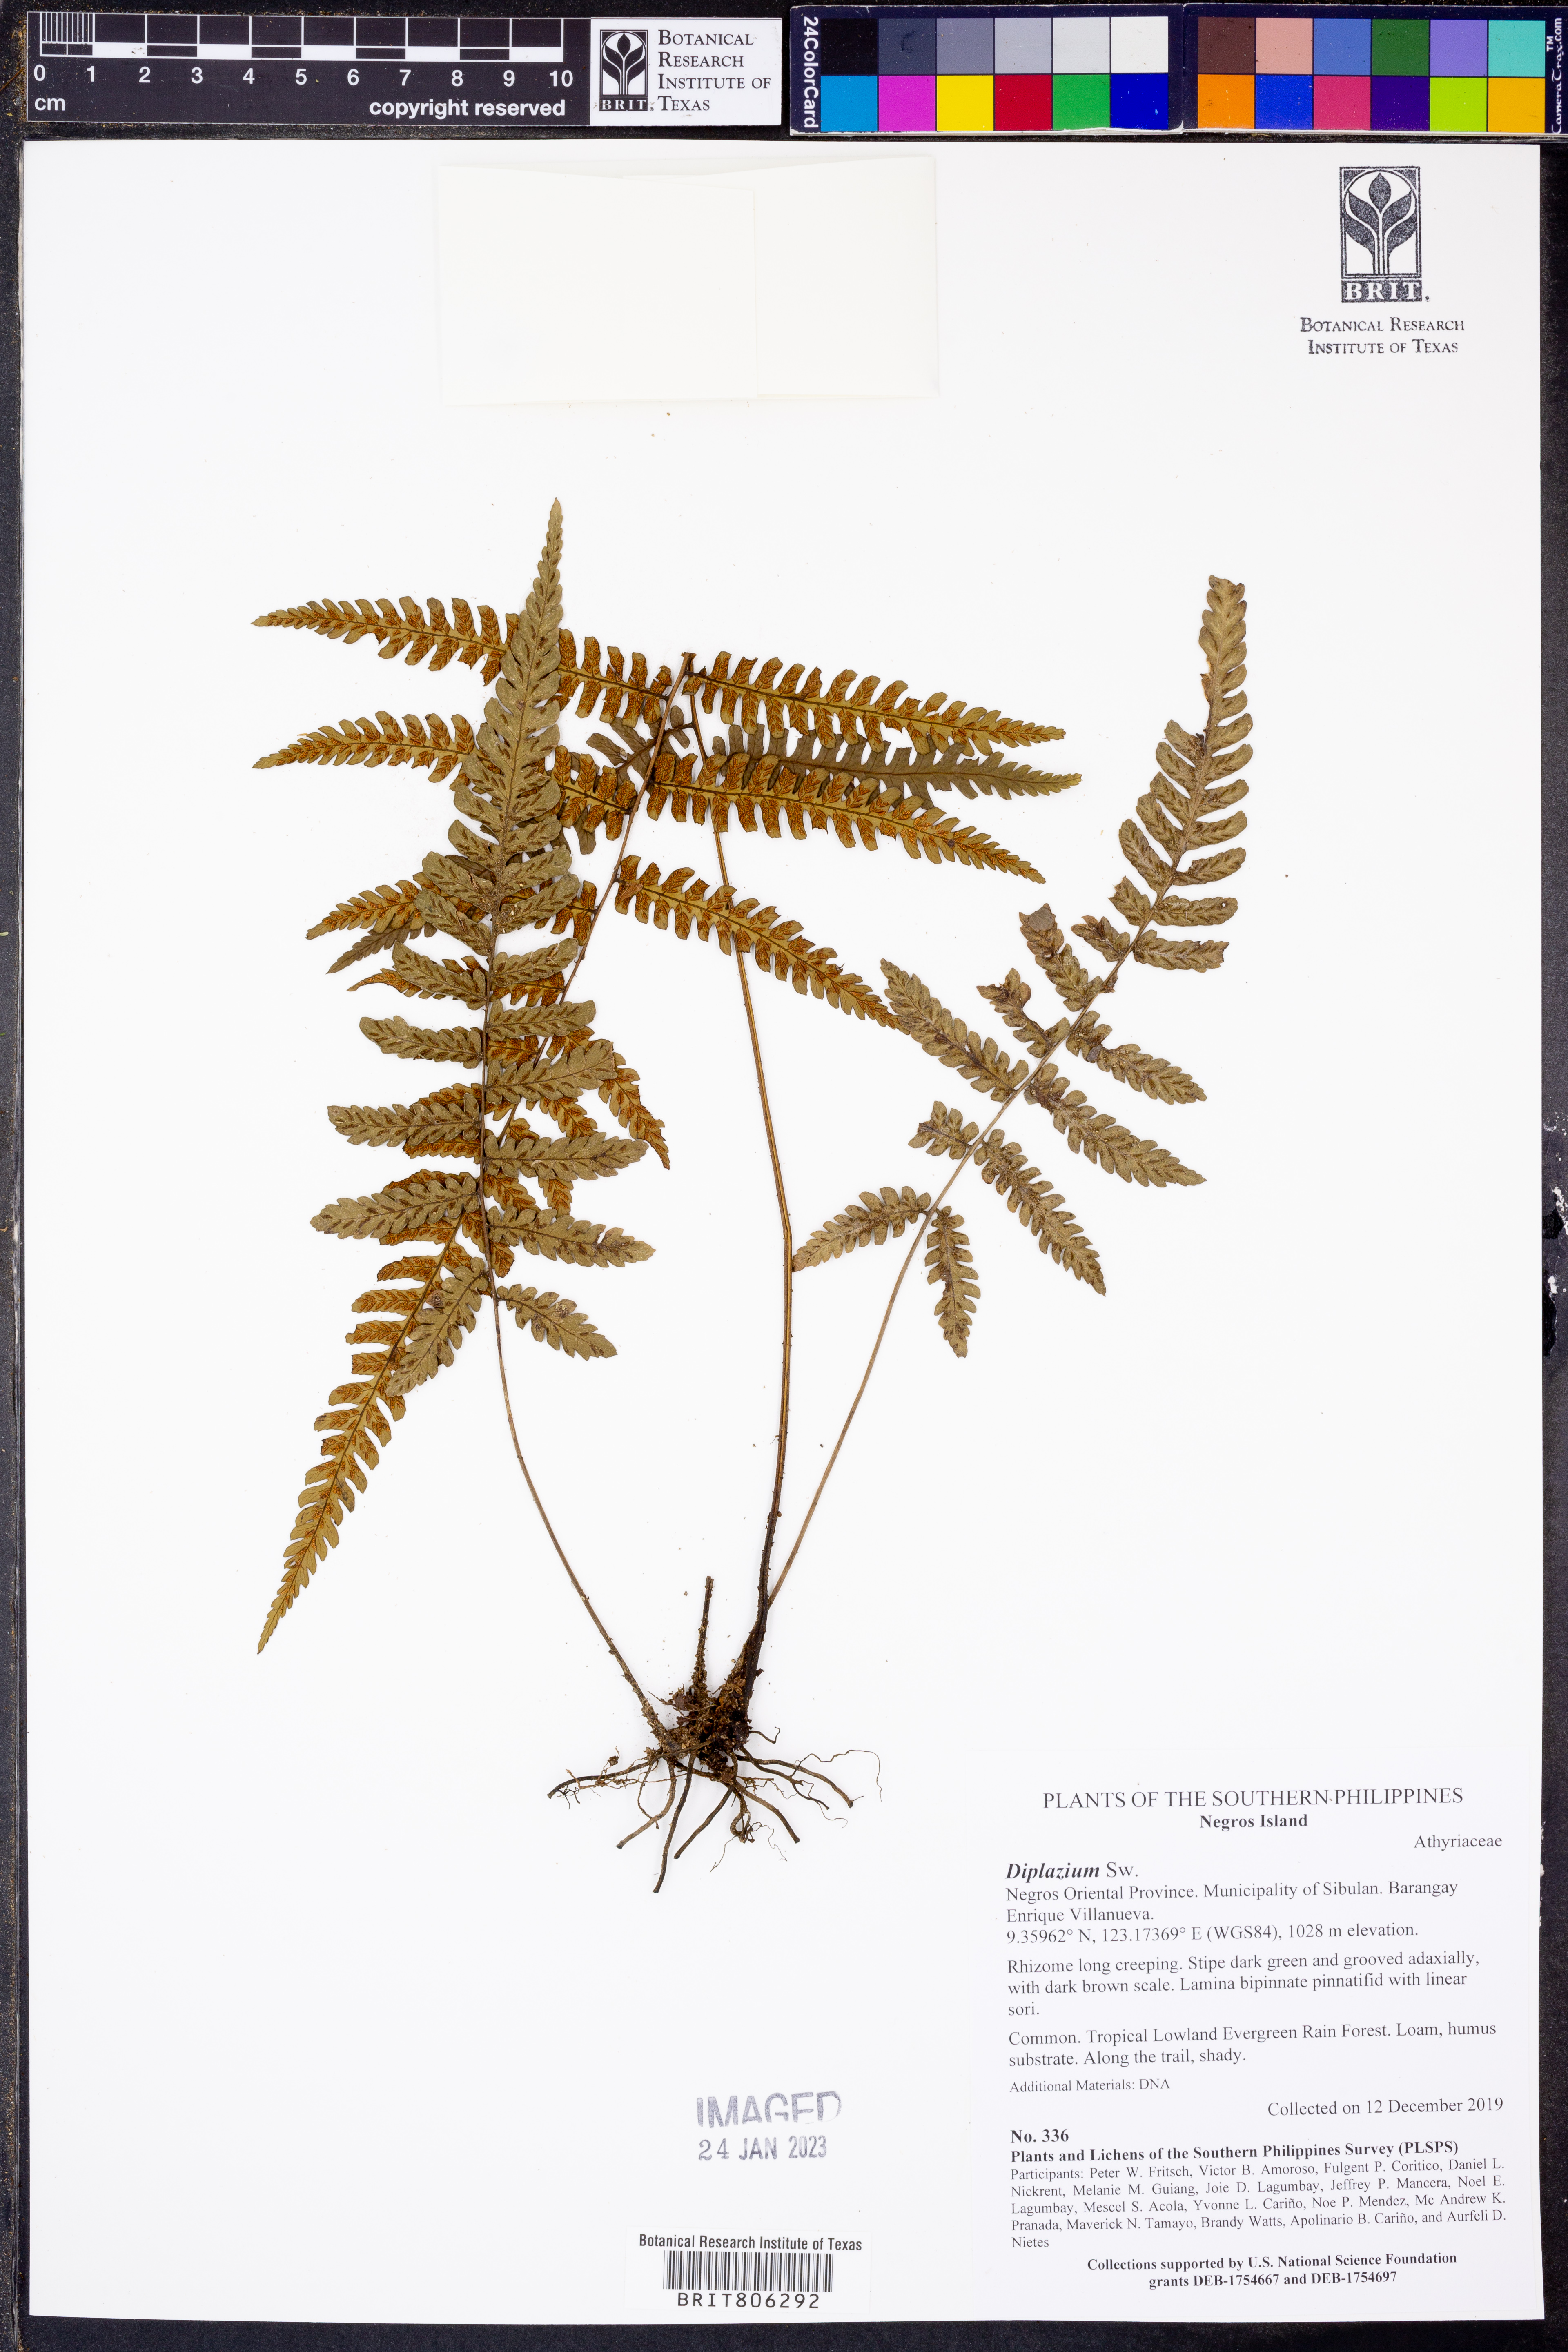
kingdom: Plantae
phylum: Tracheophyta
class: Polypodiopsida
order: Polypodiales
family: Athyriaceae
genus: Diplazium
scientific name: Diplazium
